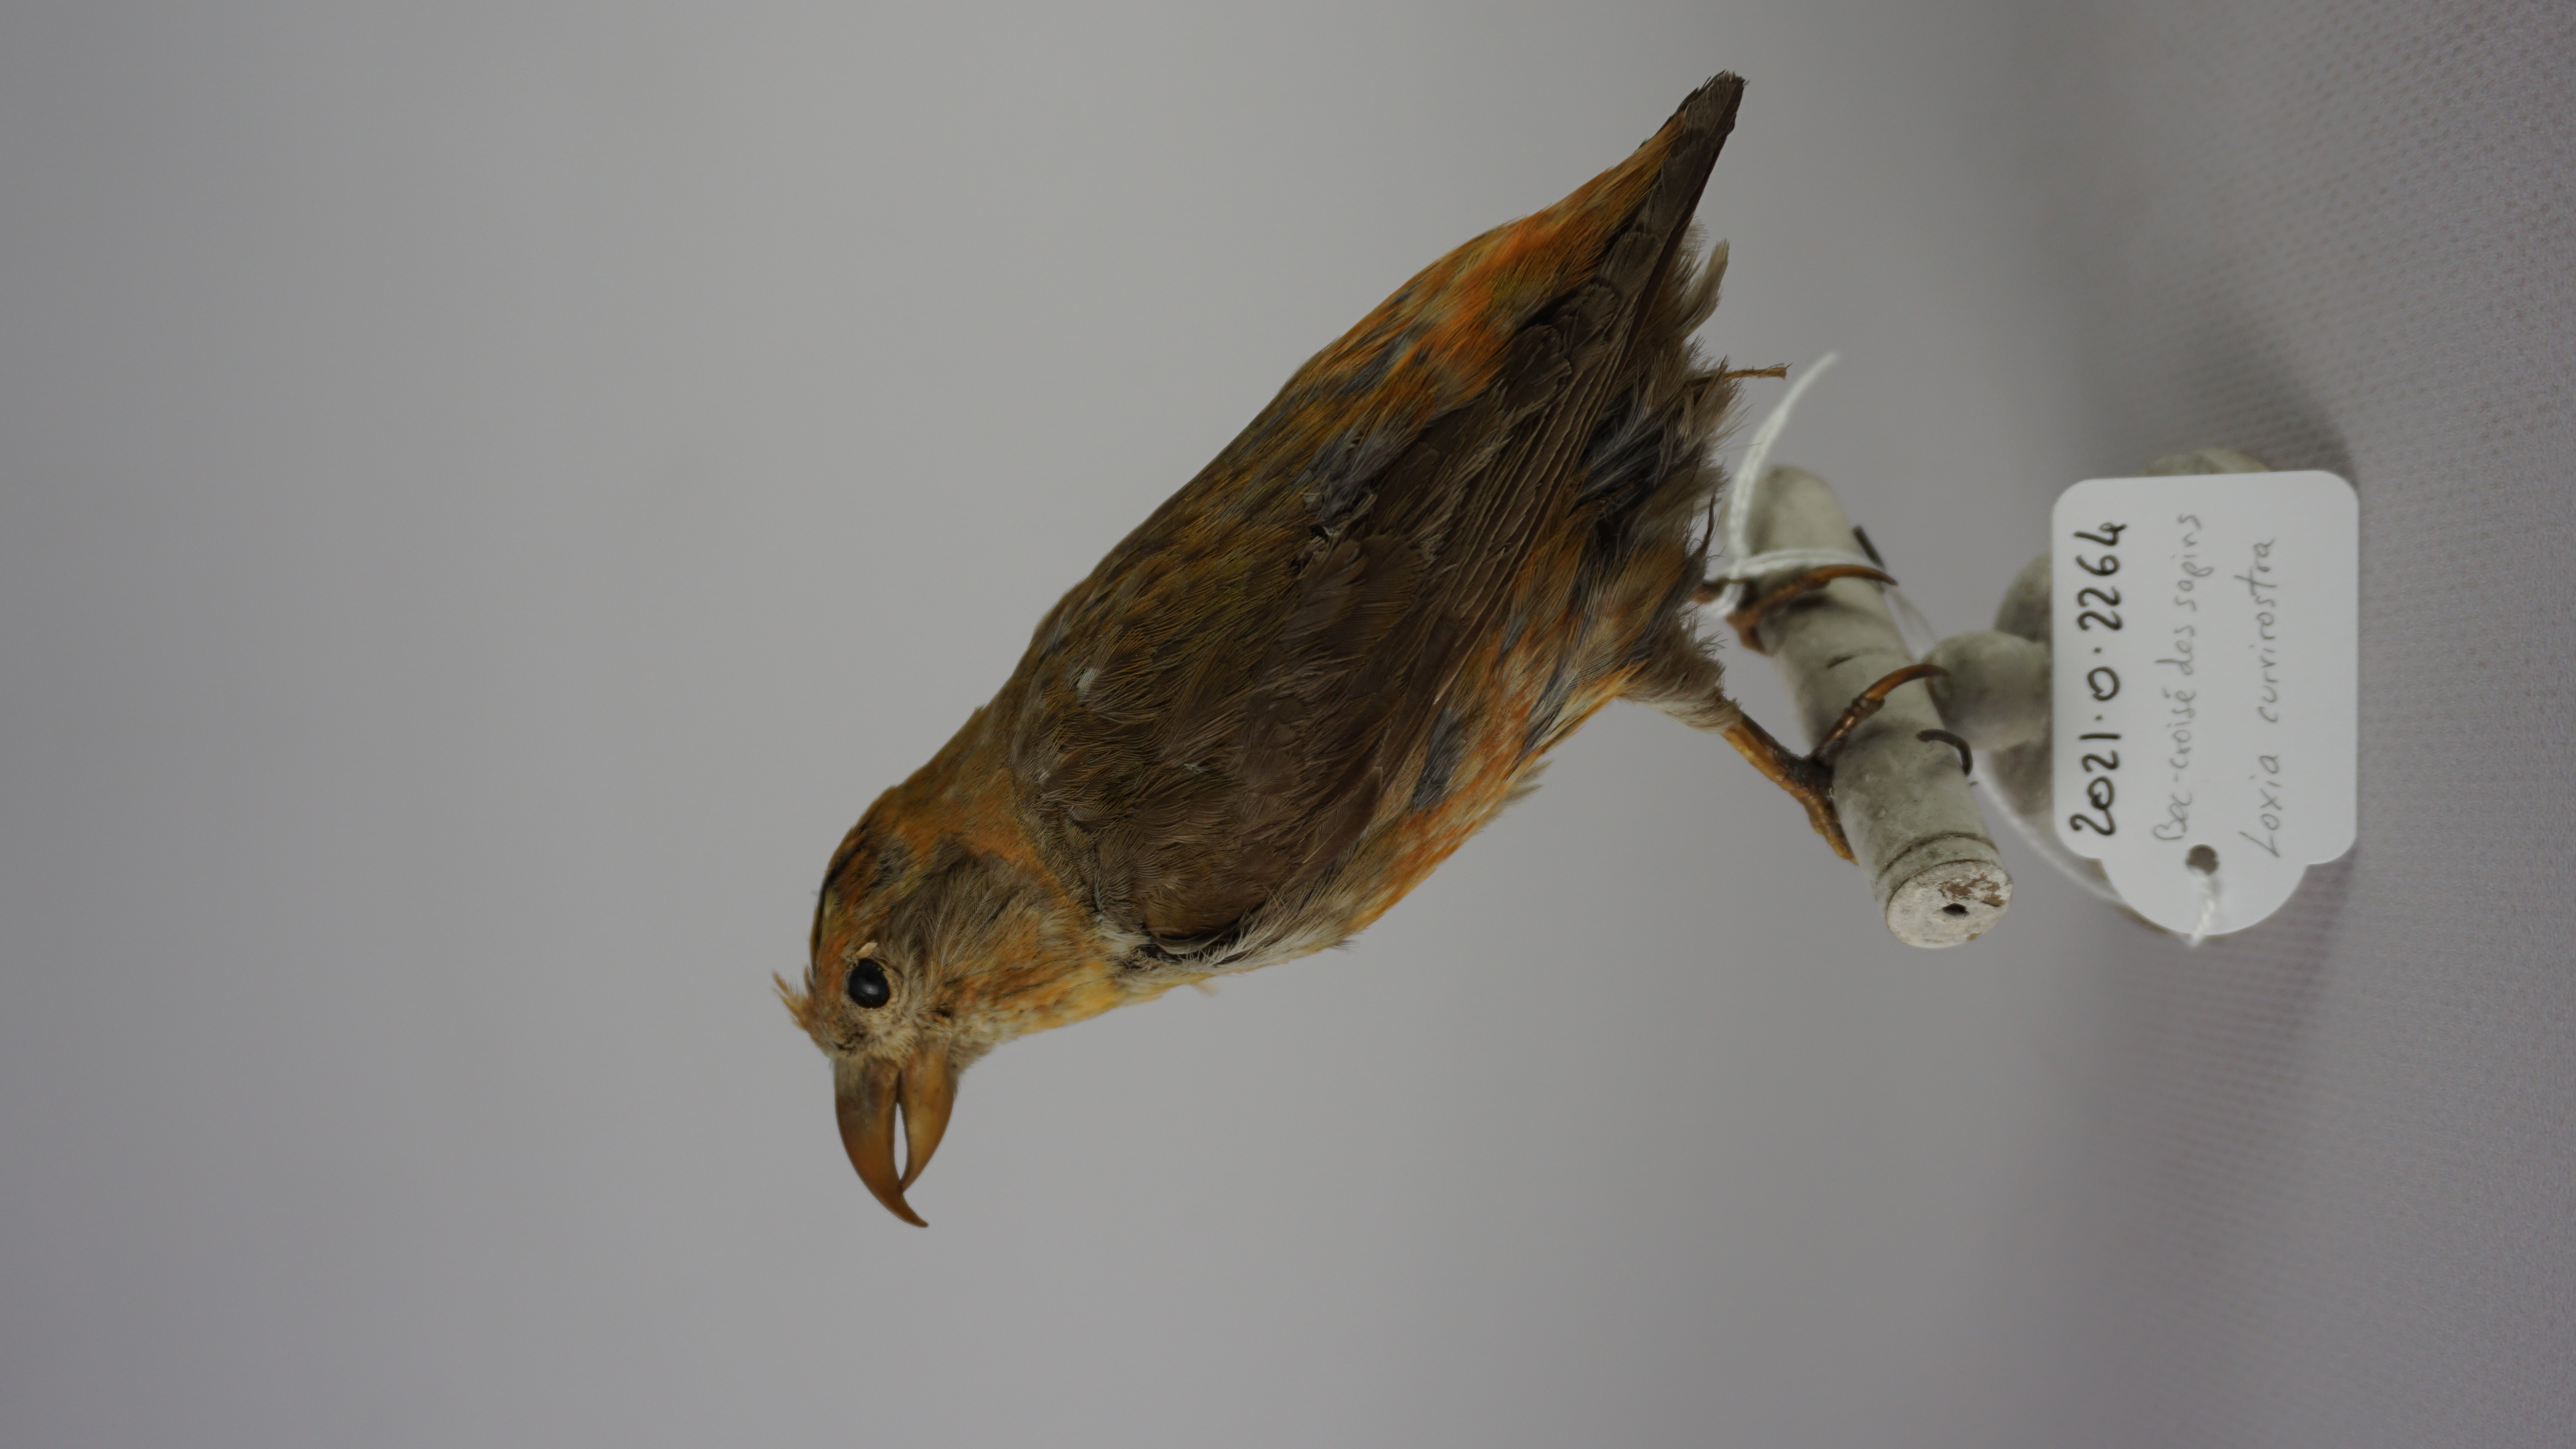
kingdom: Animalia
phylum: Chordata
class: Aves
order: Passeriformes
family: Fringillidae
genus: Loxia
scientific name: Loxia curvirostra
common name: Red crossbill
